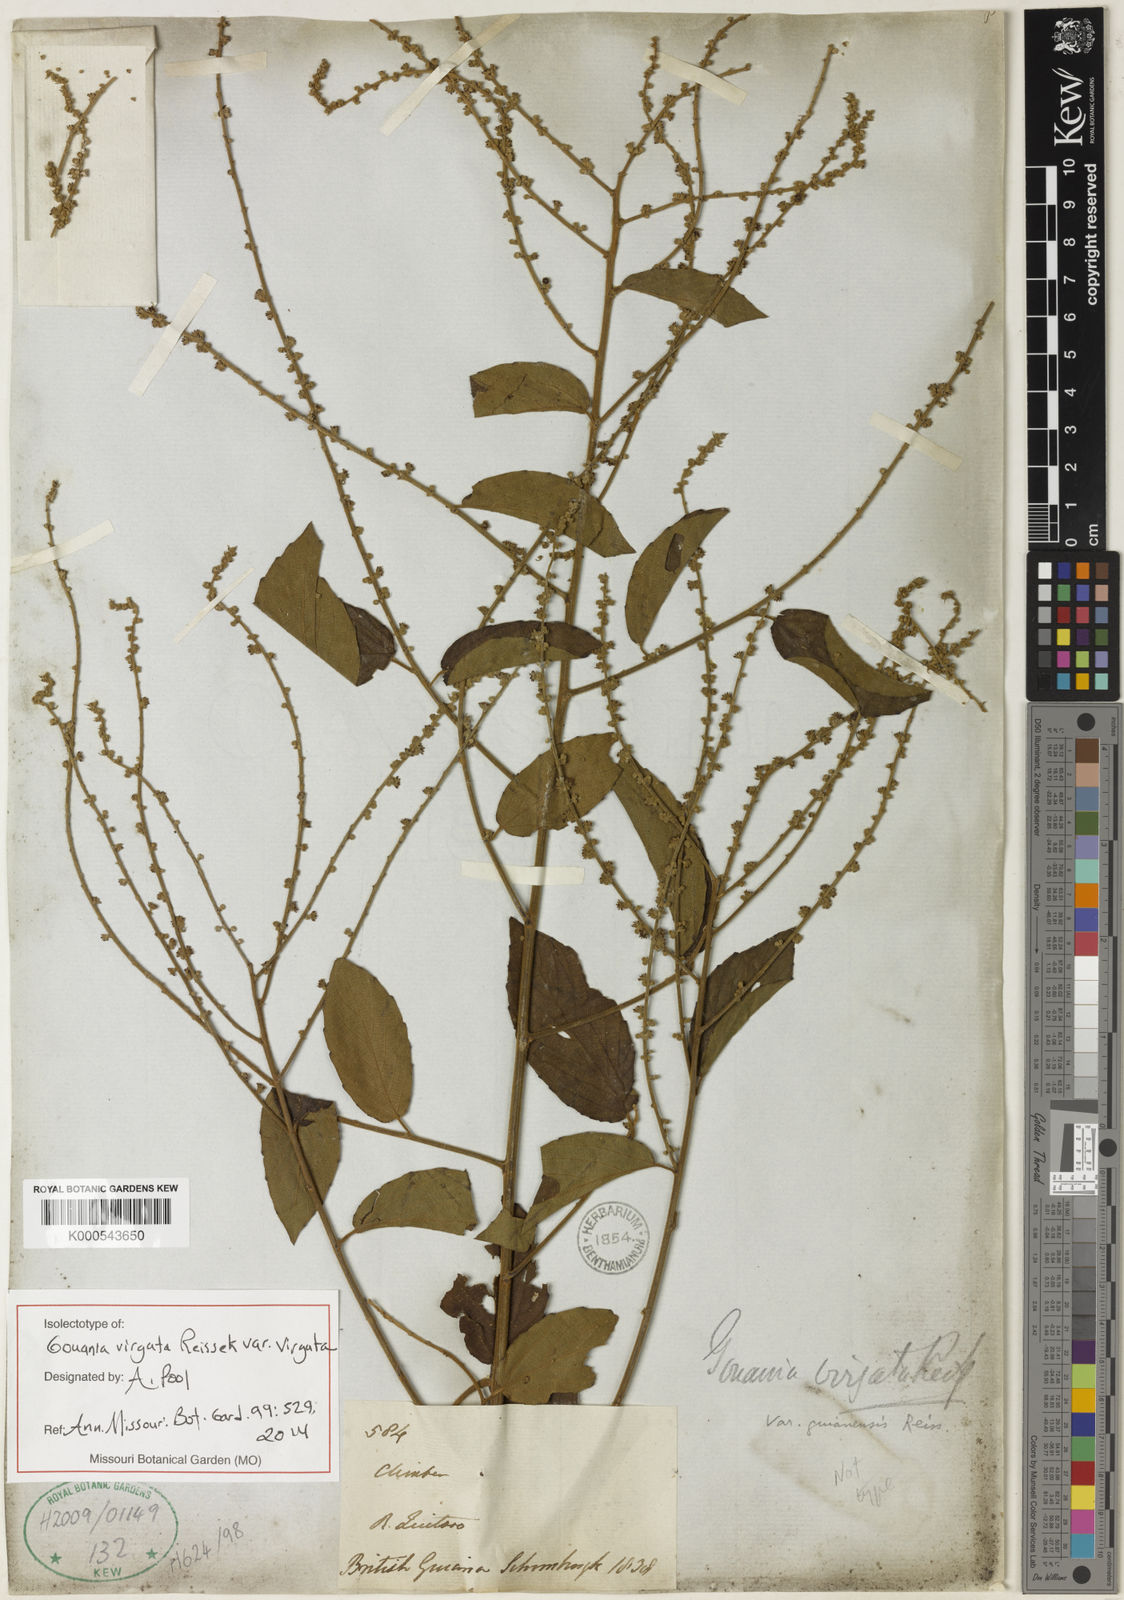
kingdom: Plantae
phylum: Tracheophyta
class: Magnoliopsida
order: Rosales
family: Rhamnaceae
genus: Gouania
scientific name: Gouania polygama
